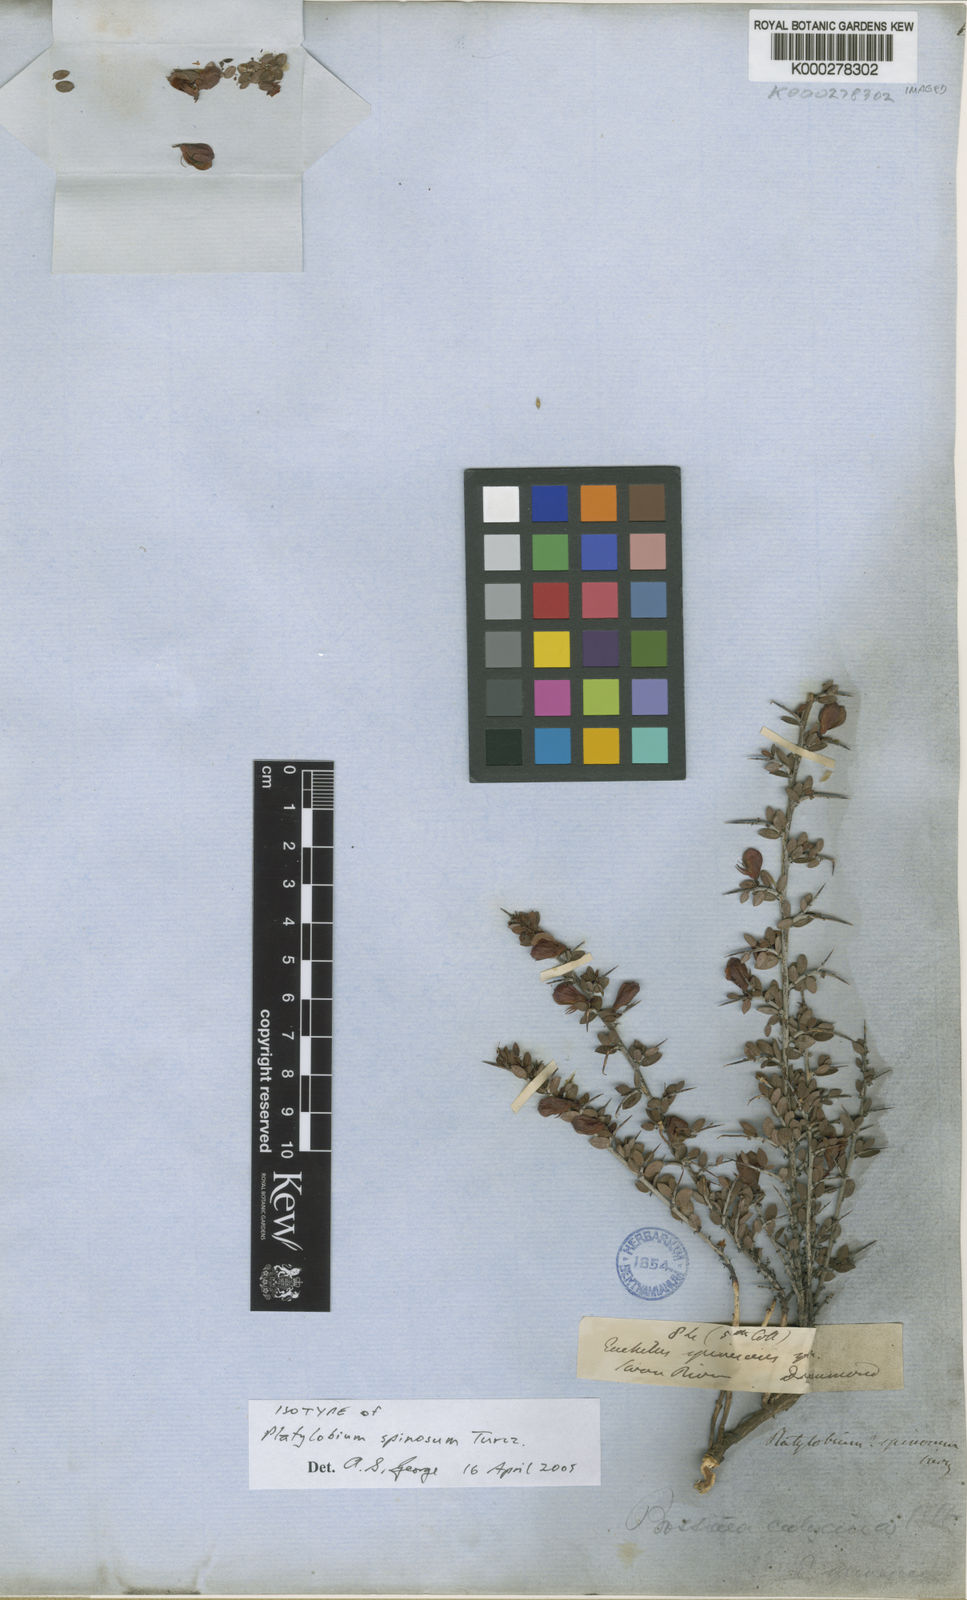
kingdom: Plantae
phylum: Tracheophyta
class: Magnoliopsida
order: Fabales
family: Fabaceae
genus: Bossiaea
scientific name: Bossiaea spinosa
